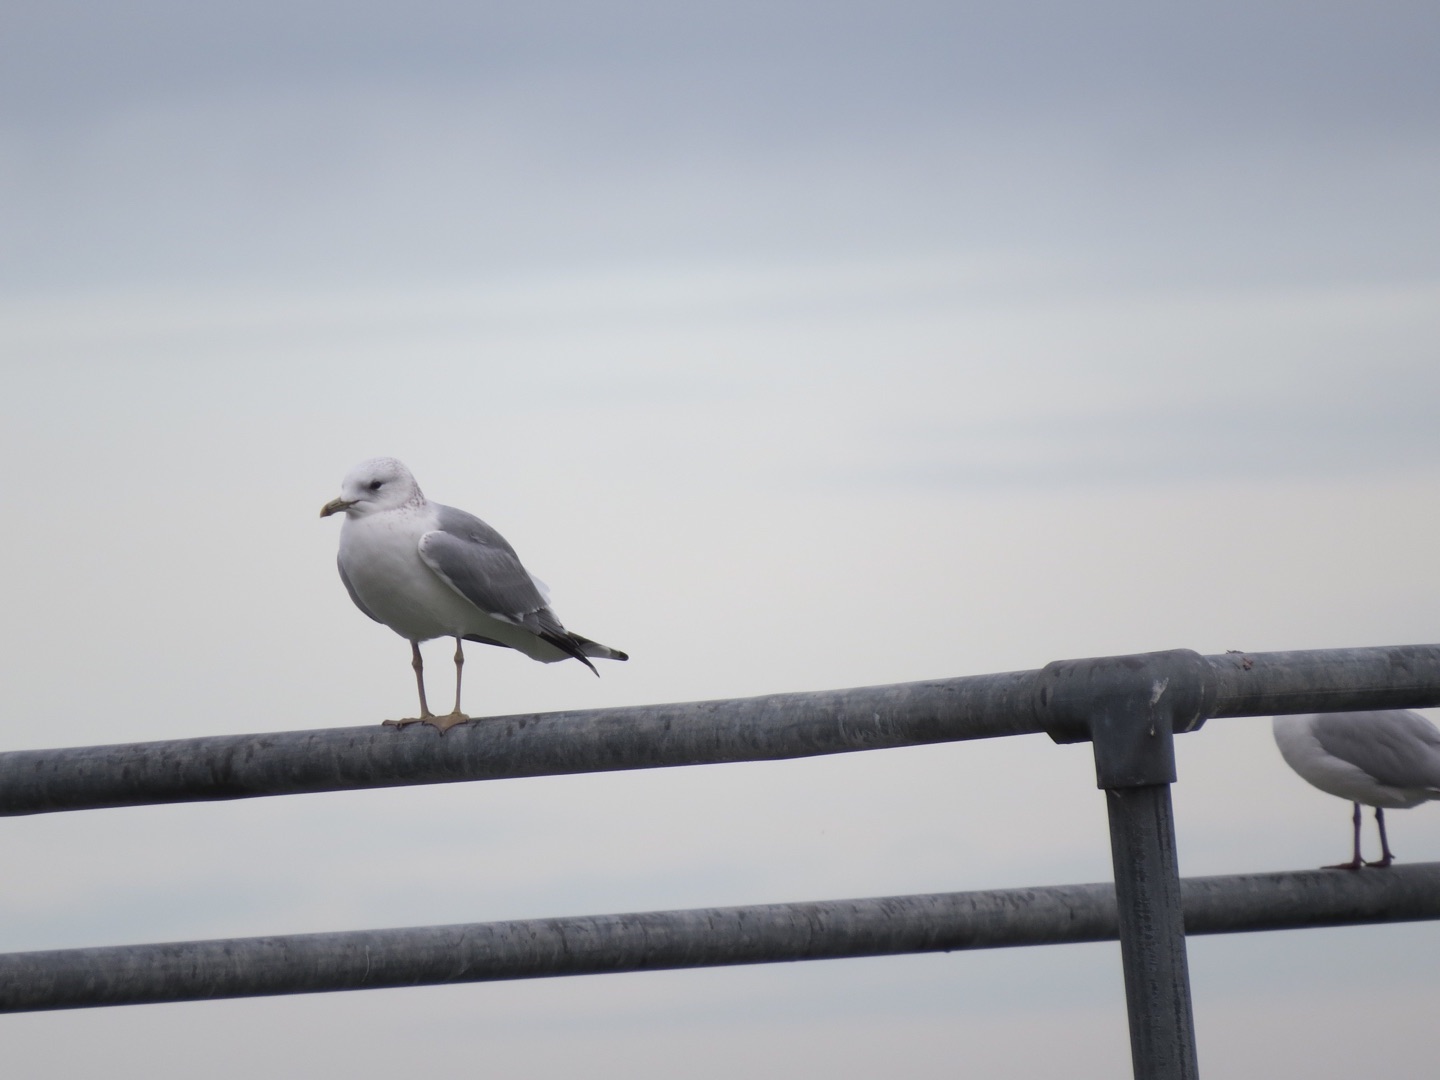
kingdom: Animalia
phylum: Chordata
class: Aves
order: Charadriiformes
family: Laridae
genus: Larus
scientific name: Larus canus
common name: Stormmåge
